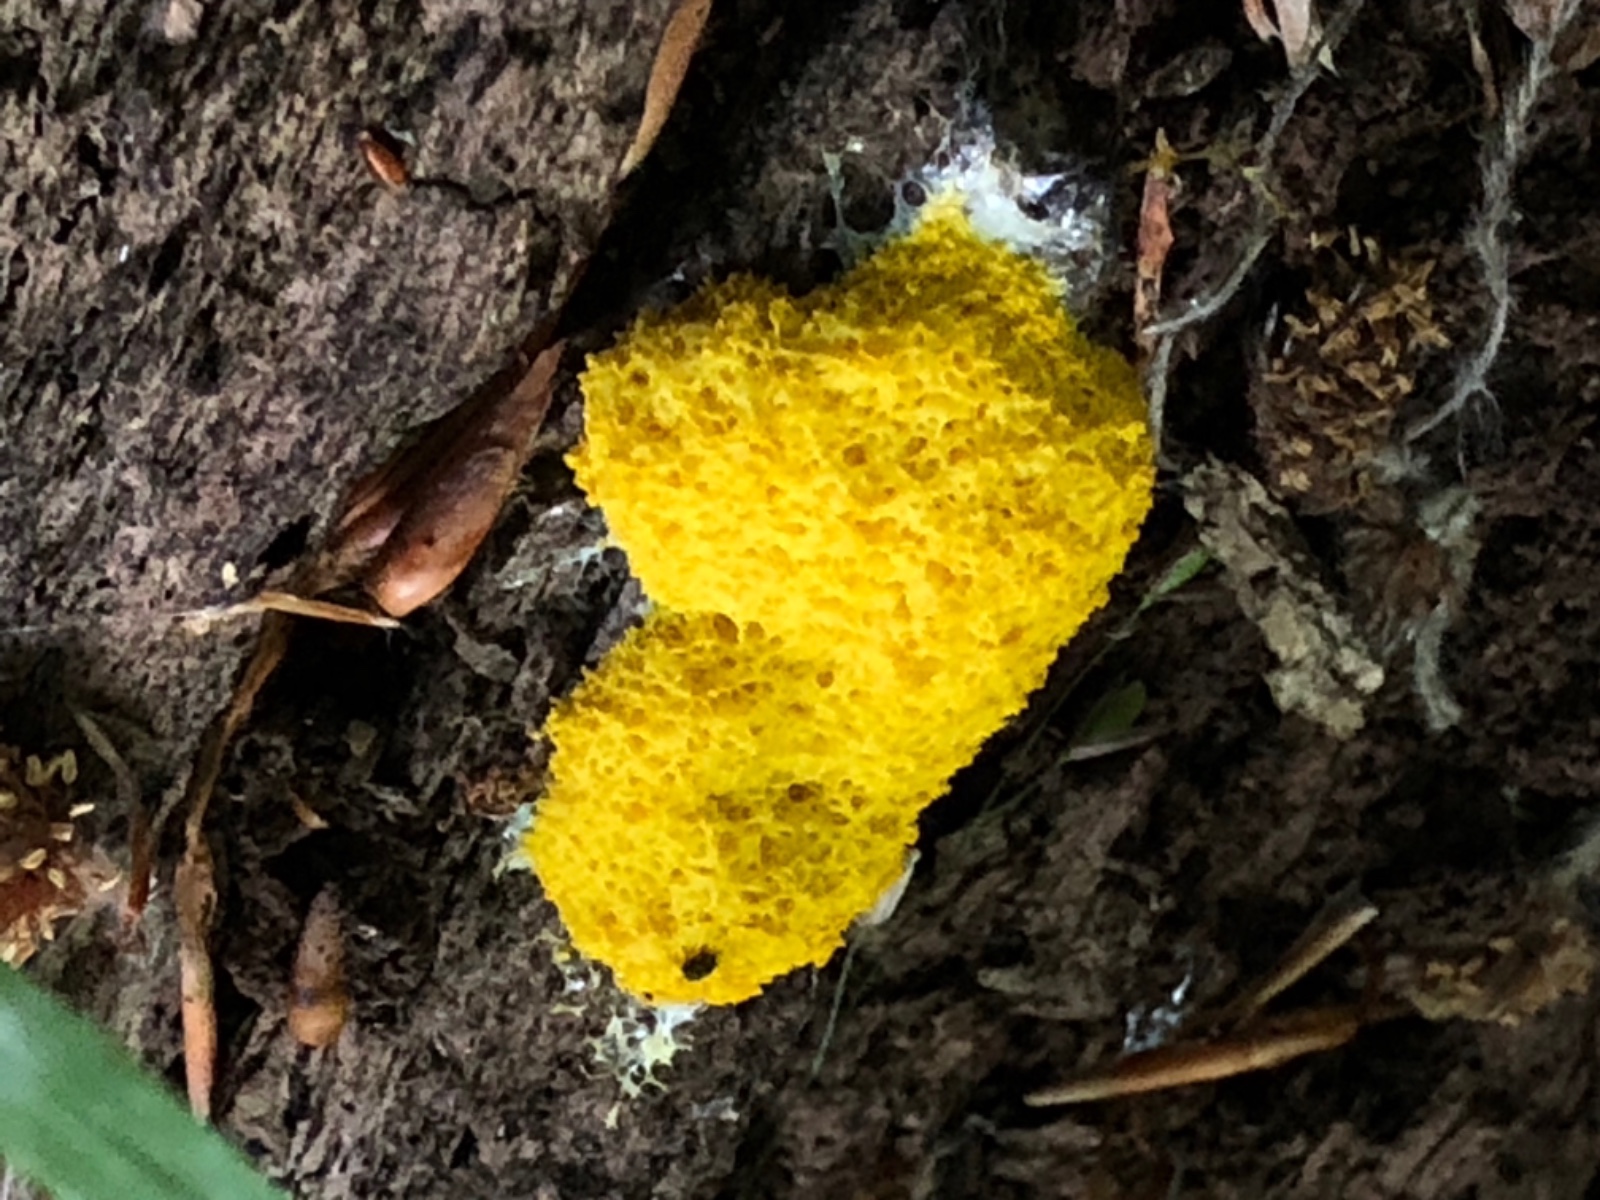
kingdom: Protozoa
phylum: Mycetozoa
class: Myxomycetes
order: Physarales
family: Physaraceae
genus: Fuligo
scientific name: Fuligo septica
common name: gul troldsmør
